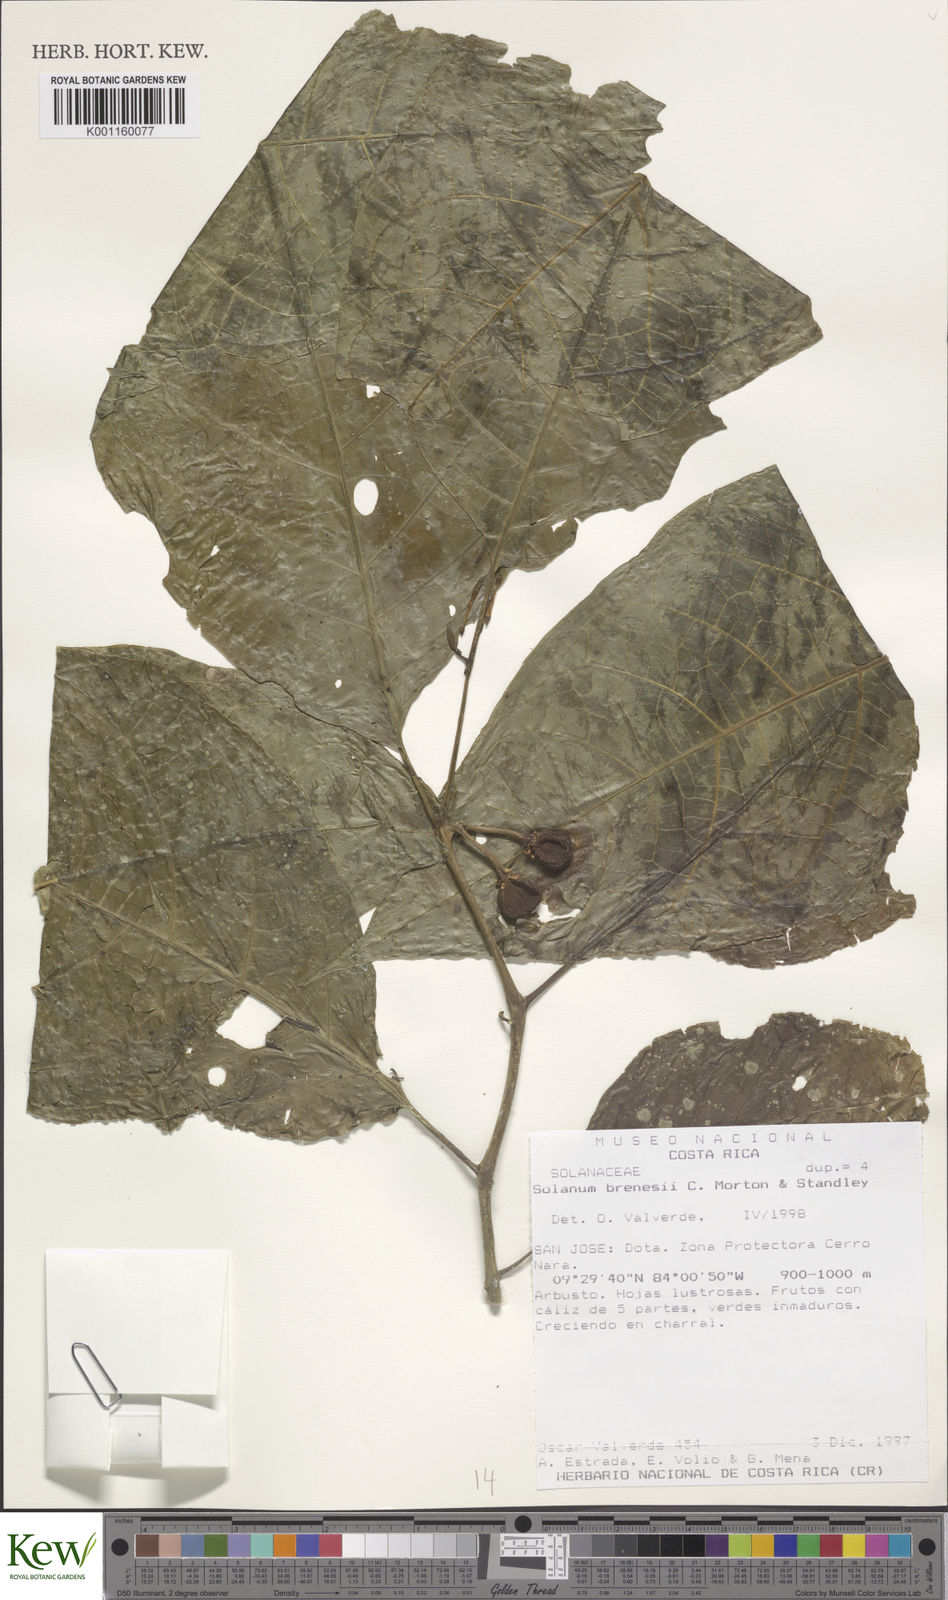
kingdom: Plantae
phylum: Tracheophyta
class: Magnoliopsida
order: Solanales
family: Solanaceae
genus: Solanum
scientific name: Solanum rovirosanum
